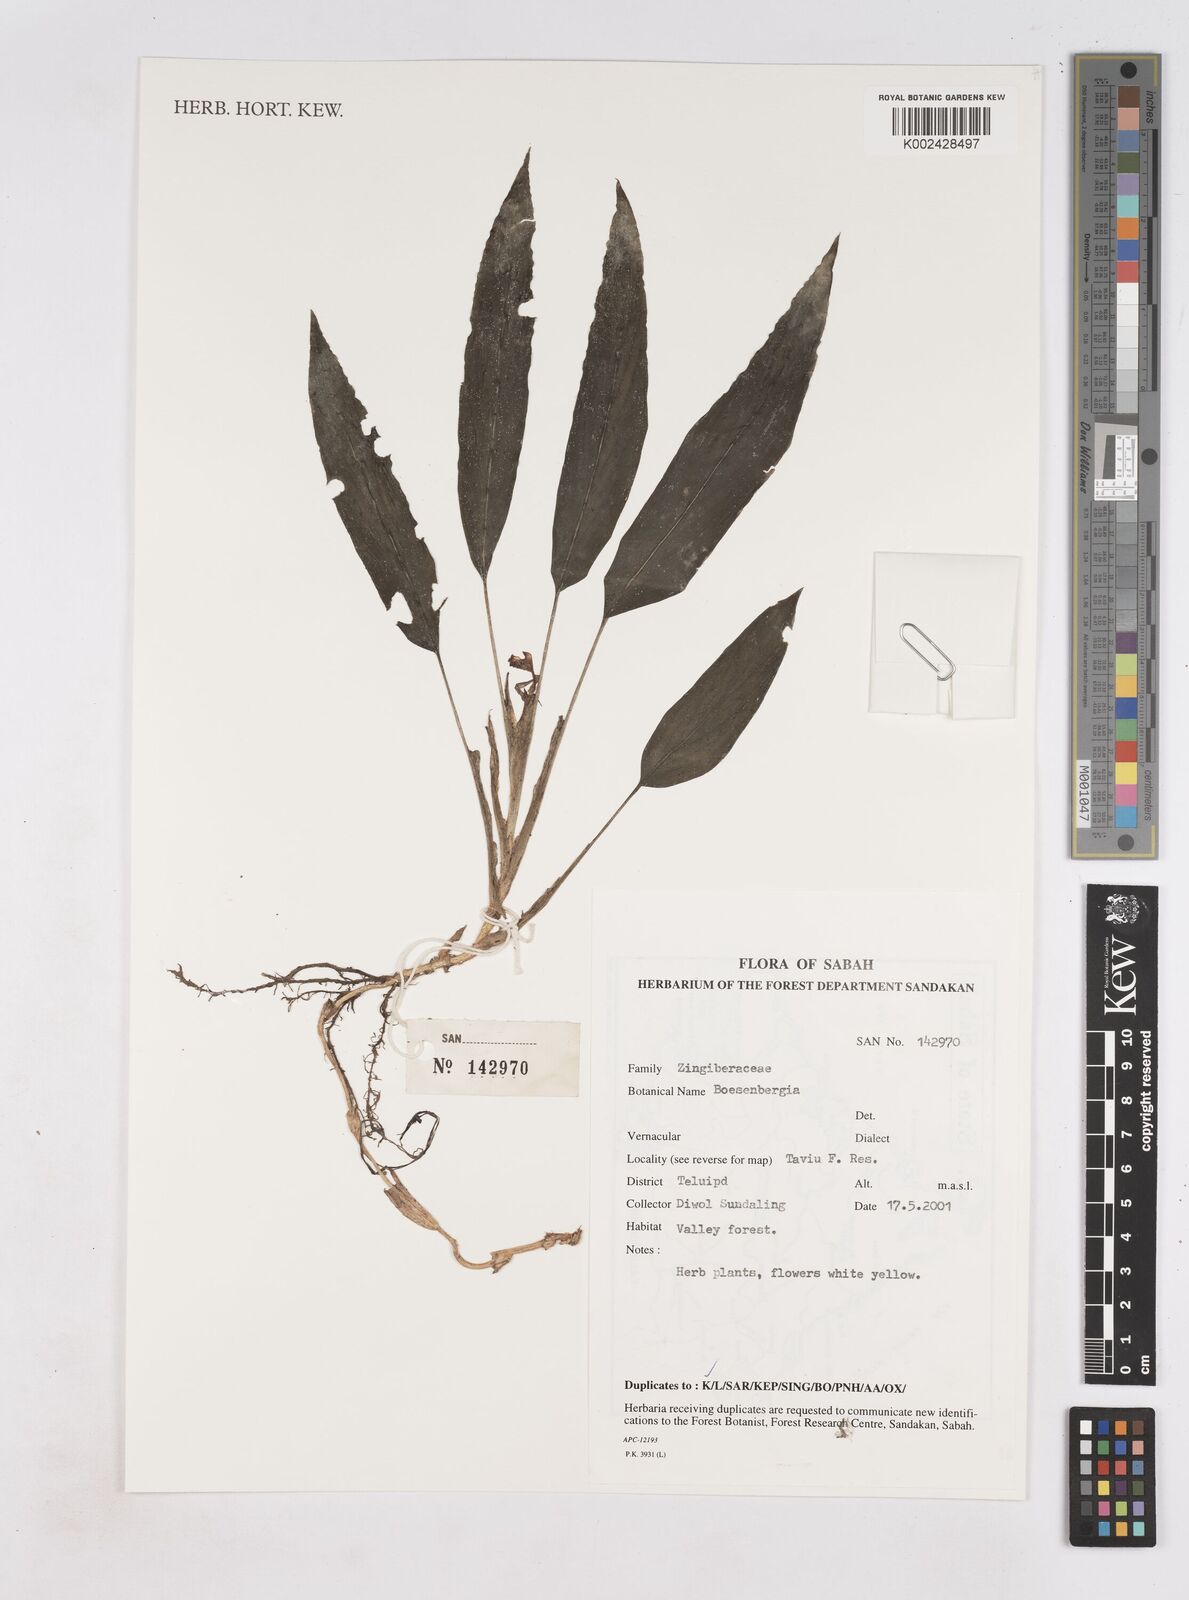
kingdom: Plantae
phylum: Tracheophyta
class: Liliopsida
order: Zingiberales
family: Zingiberaceae
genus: Boesenbergia
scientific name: Boesenbergia
